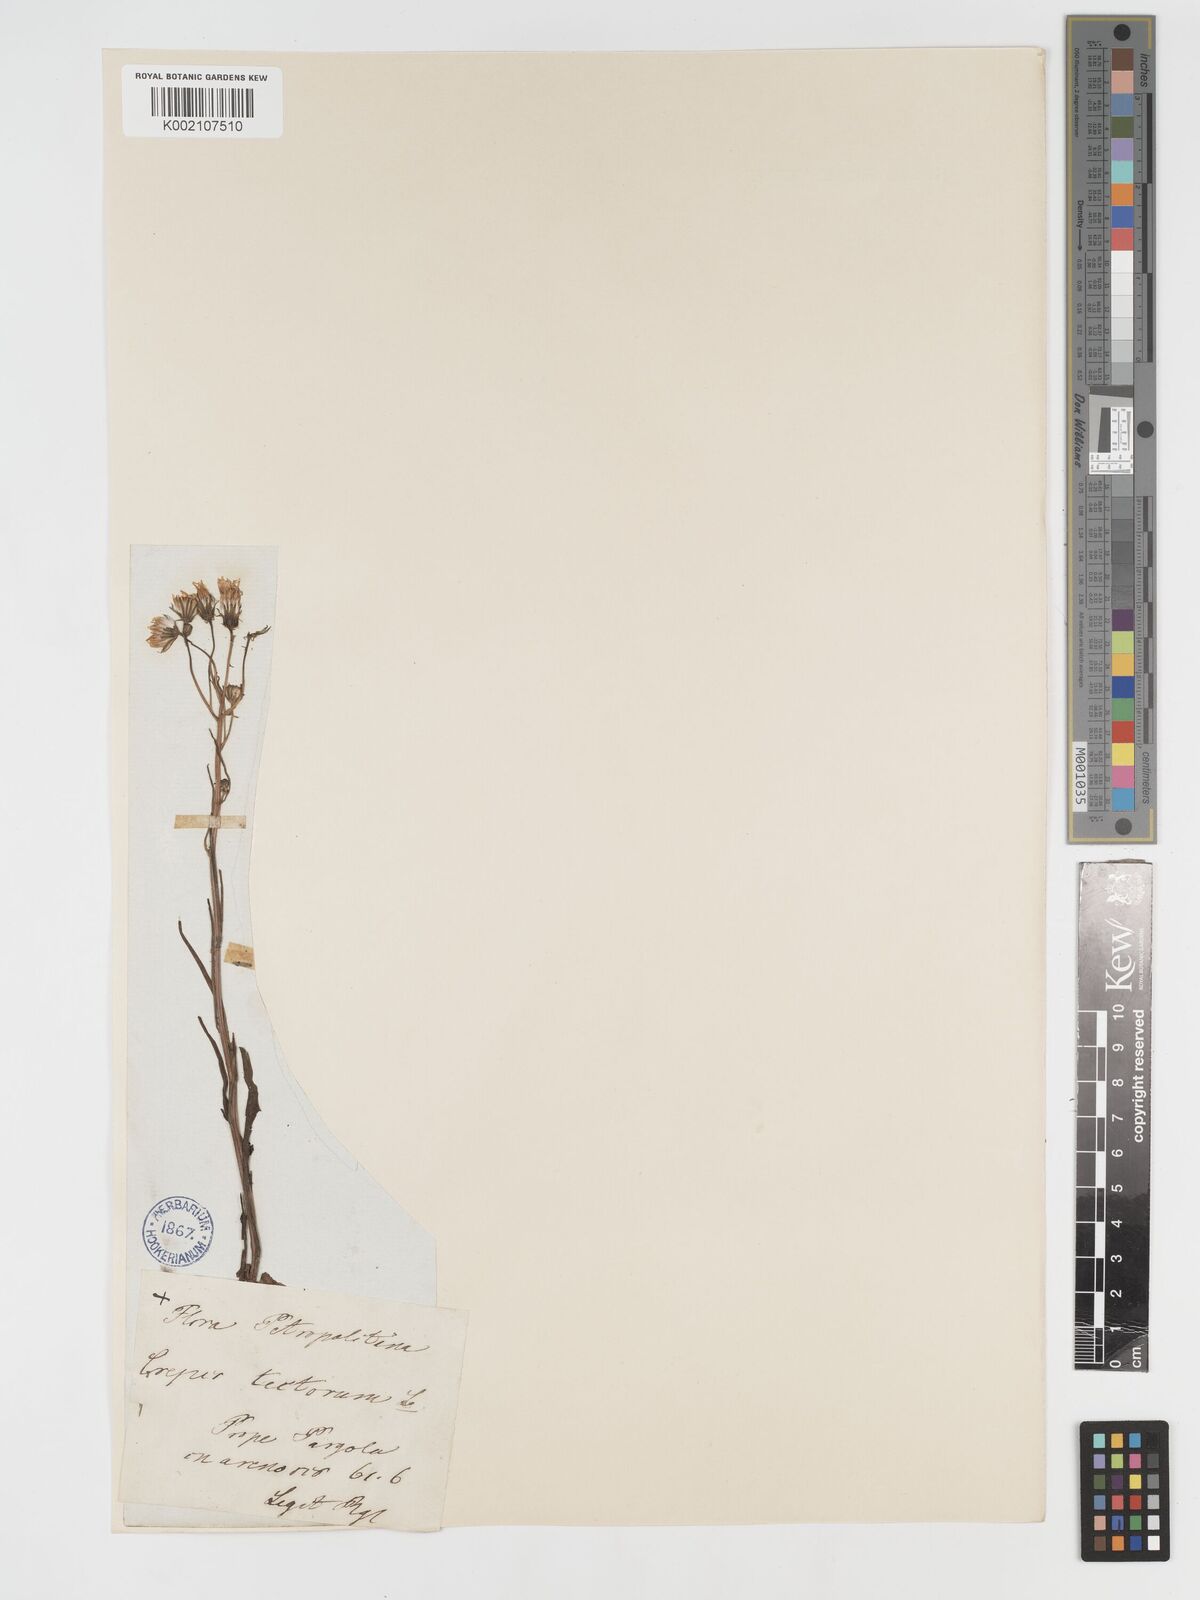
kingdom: Plantae
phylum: Tracheophyta
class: Magnoliopsida
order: Asterales
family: Asteraceae
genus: Crepis
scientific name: Crepis tectorum
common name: Narrow-leaved hawk's-beard
